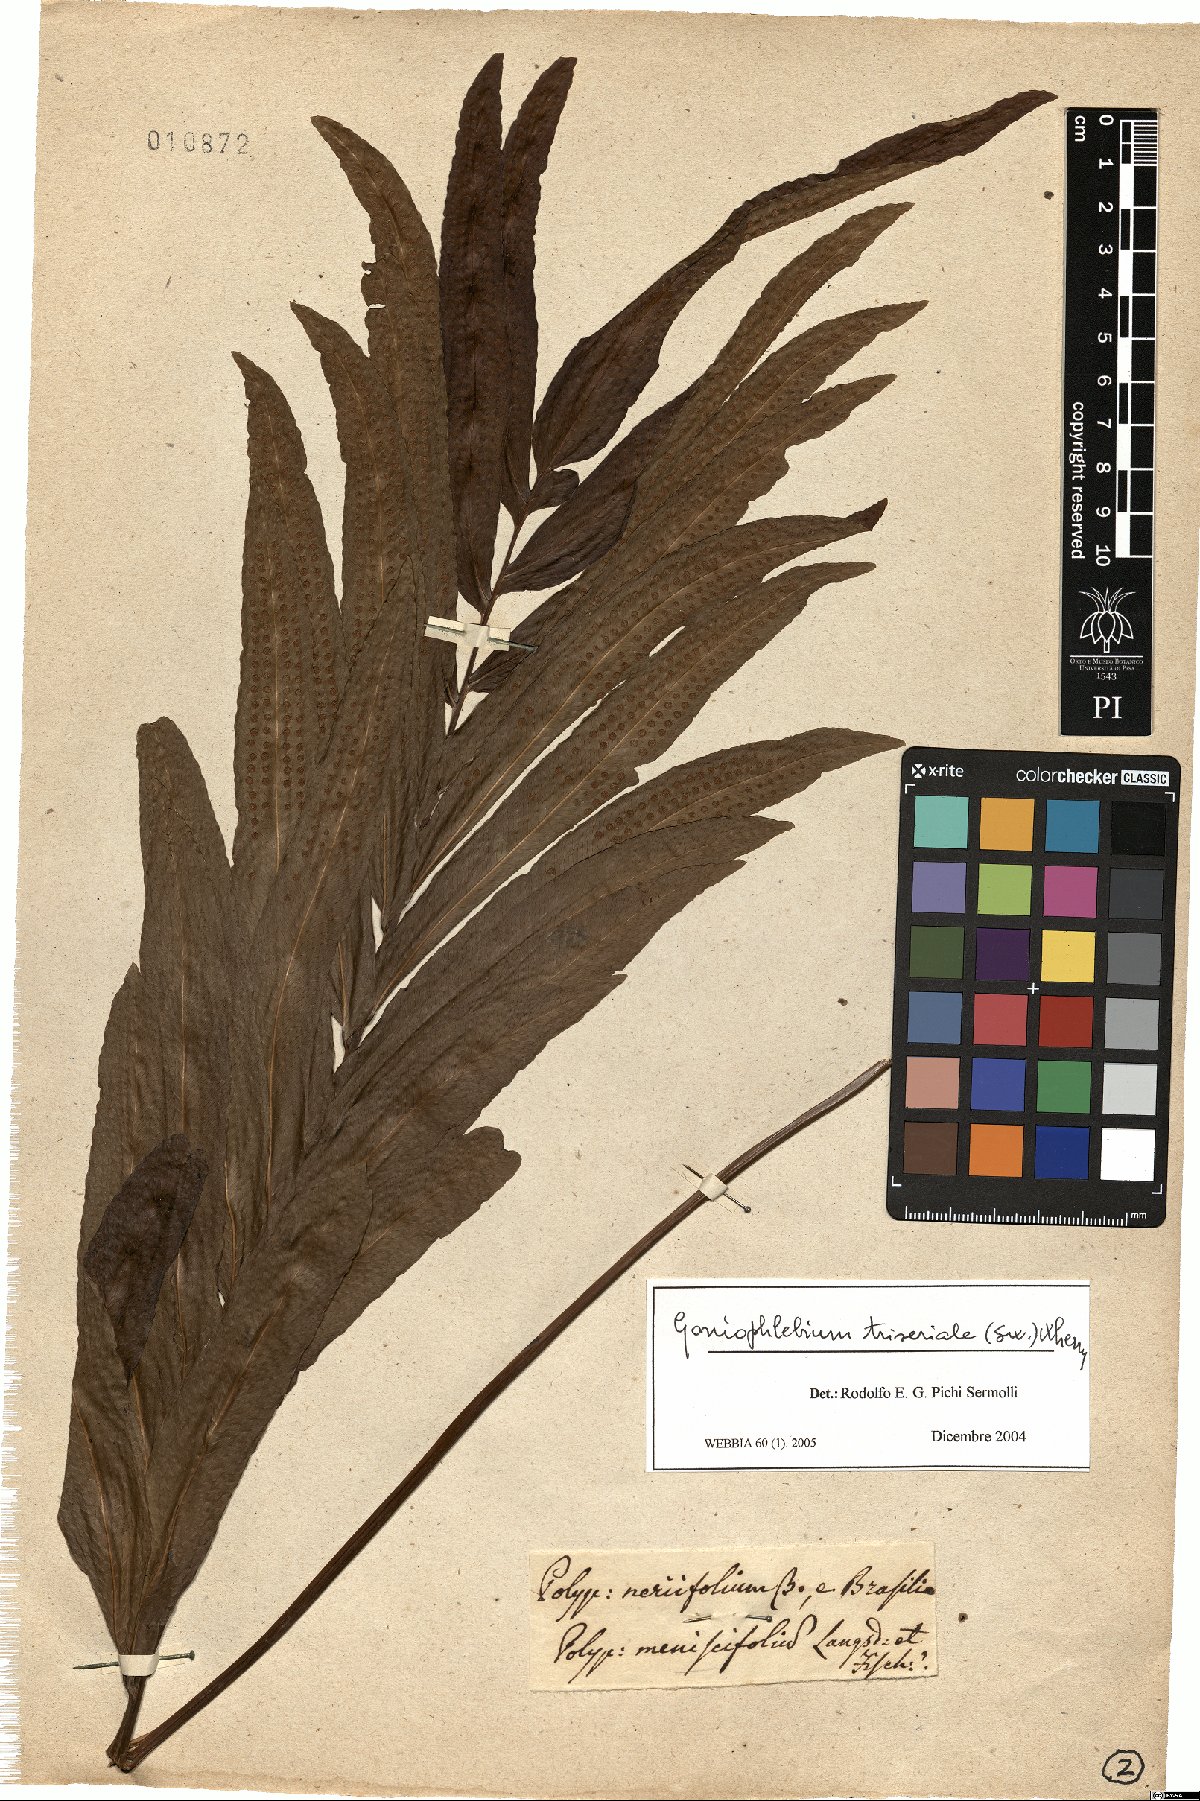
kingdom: Plantae
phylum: Tracheophyta
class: Polypodiopsida
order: Polypodiales
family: Polypodiaceae
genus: Serpocaulon
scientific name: Serpocaulon triseriale
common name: Angle-vein fern
